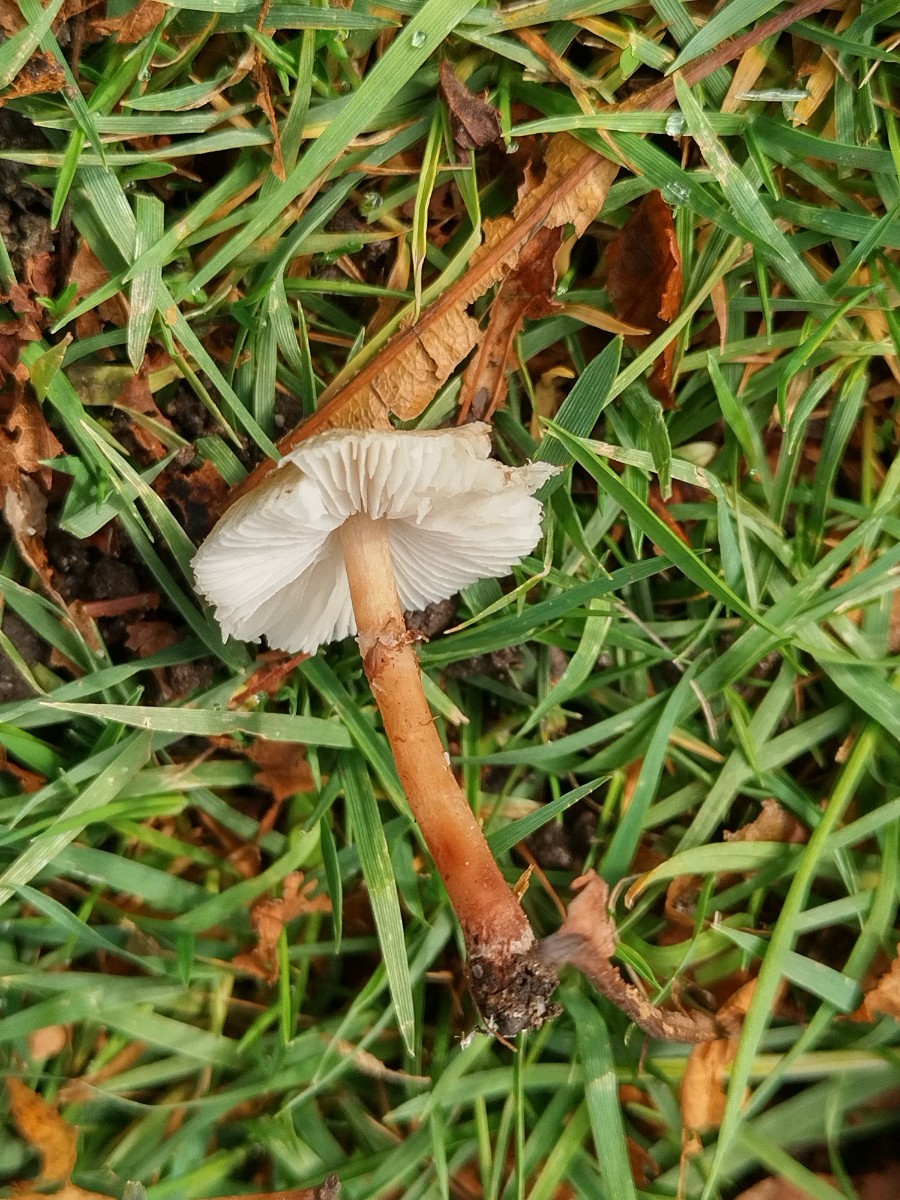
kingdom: Fungi
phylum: Basidiomycota
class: Agaricomycetes
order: Agaricales
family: Agaricaceae
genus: Lepiota
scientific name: Lepiota cristata
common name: stinkende parasolhat
